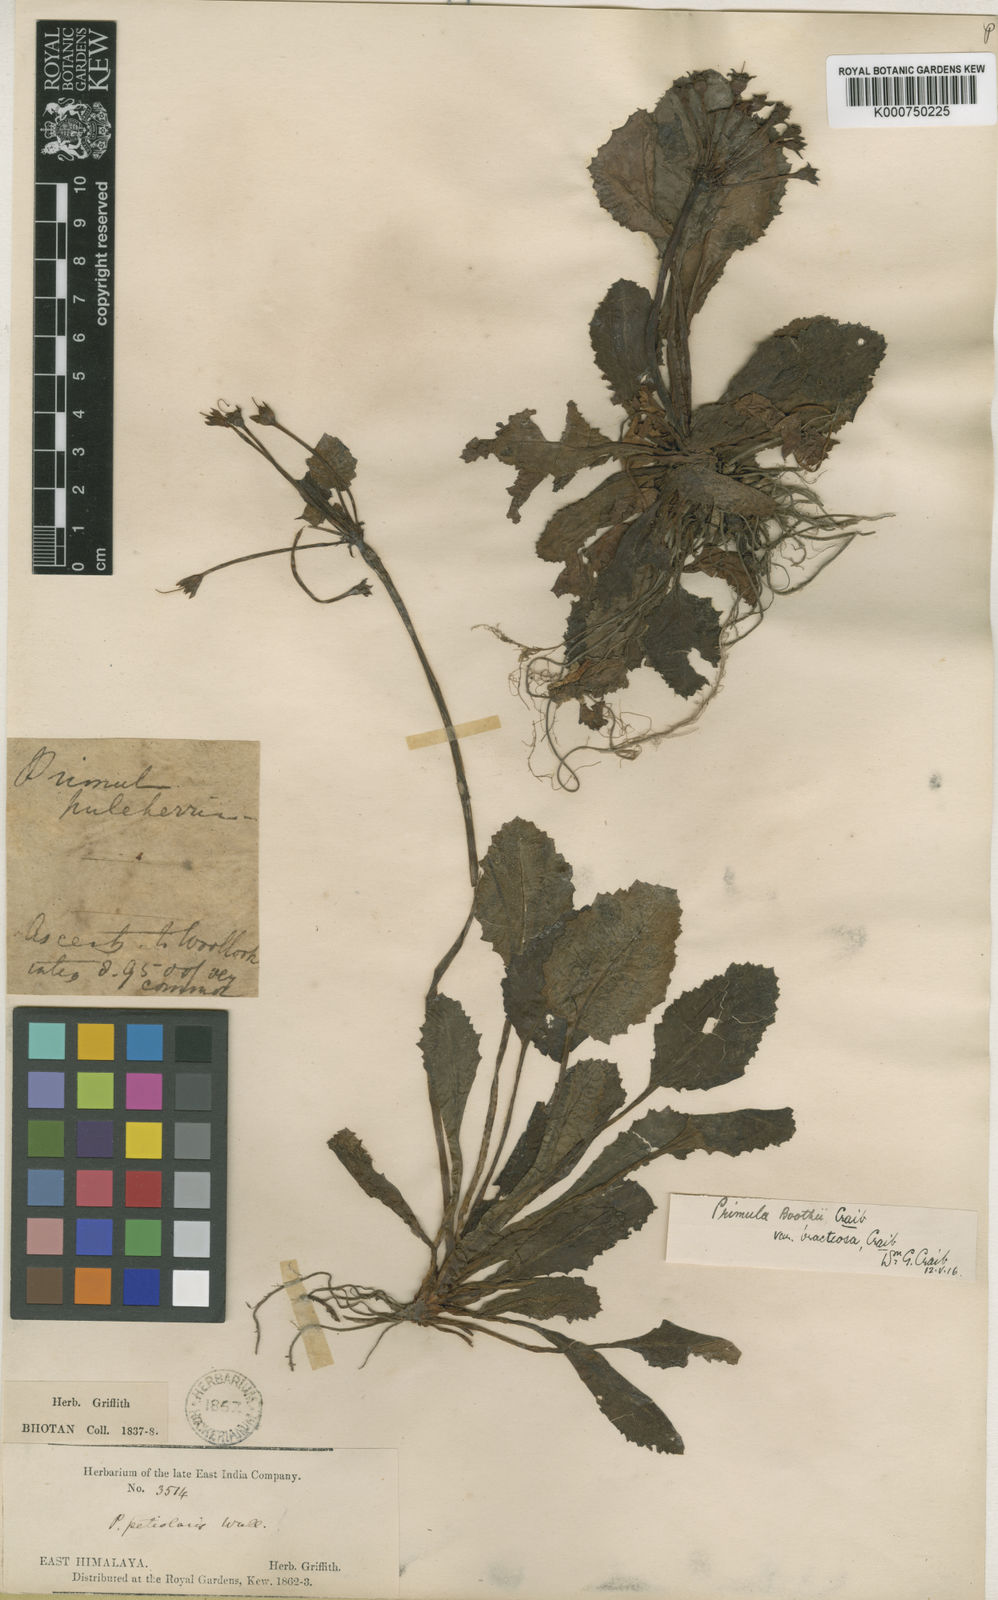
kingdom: Plantae
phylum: Tracheophyta
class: Magnoliopsida
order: Ericales
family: Primulaceae
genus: Primula
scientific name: Primula bracteosa
